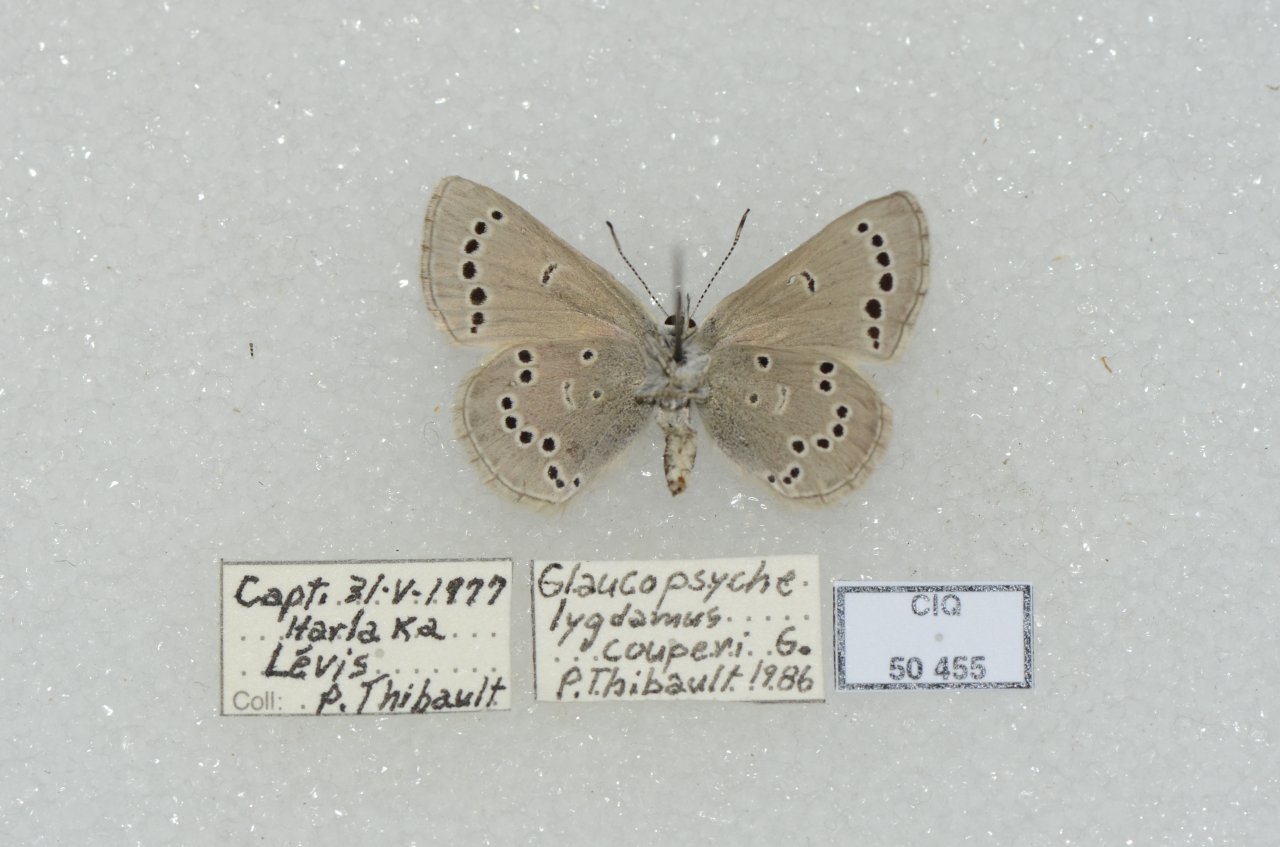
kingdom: Animalia
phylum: Arthropoda
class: Insecta
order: Lepidoptera
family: Lycaenidae
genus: Glaucopsyche
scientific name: Glaucopsyche lygdamus
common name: Silvery Blue
